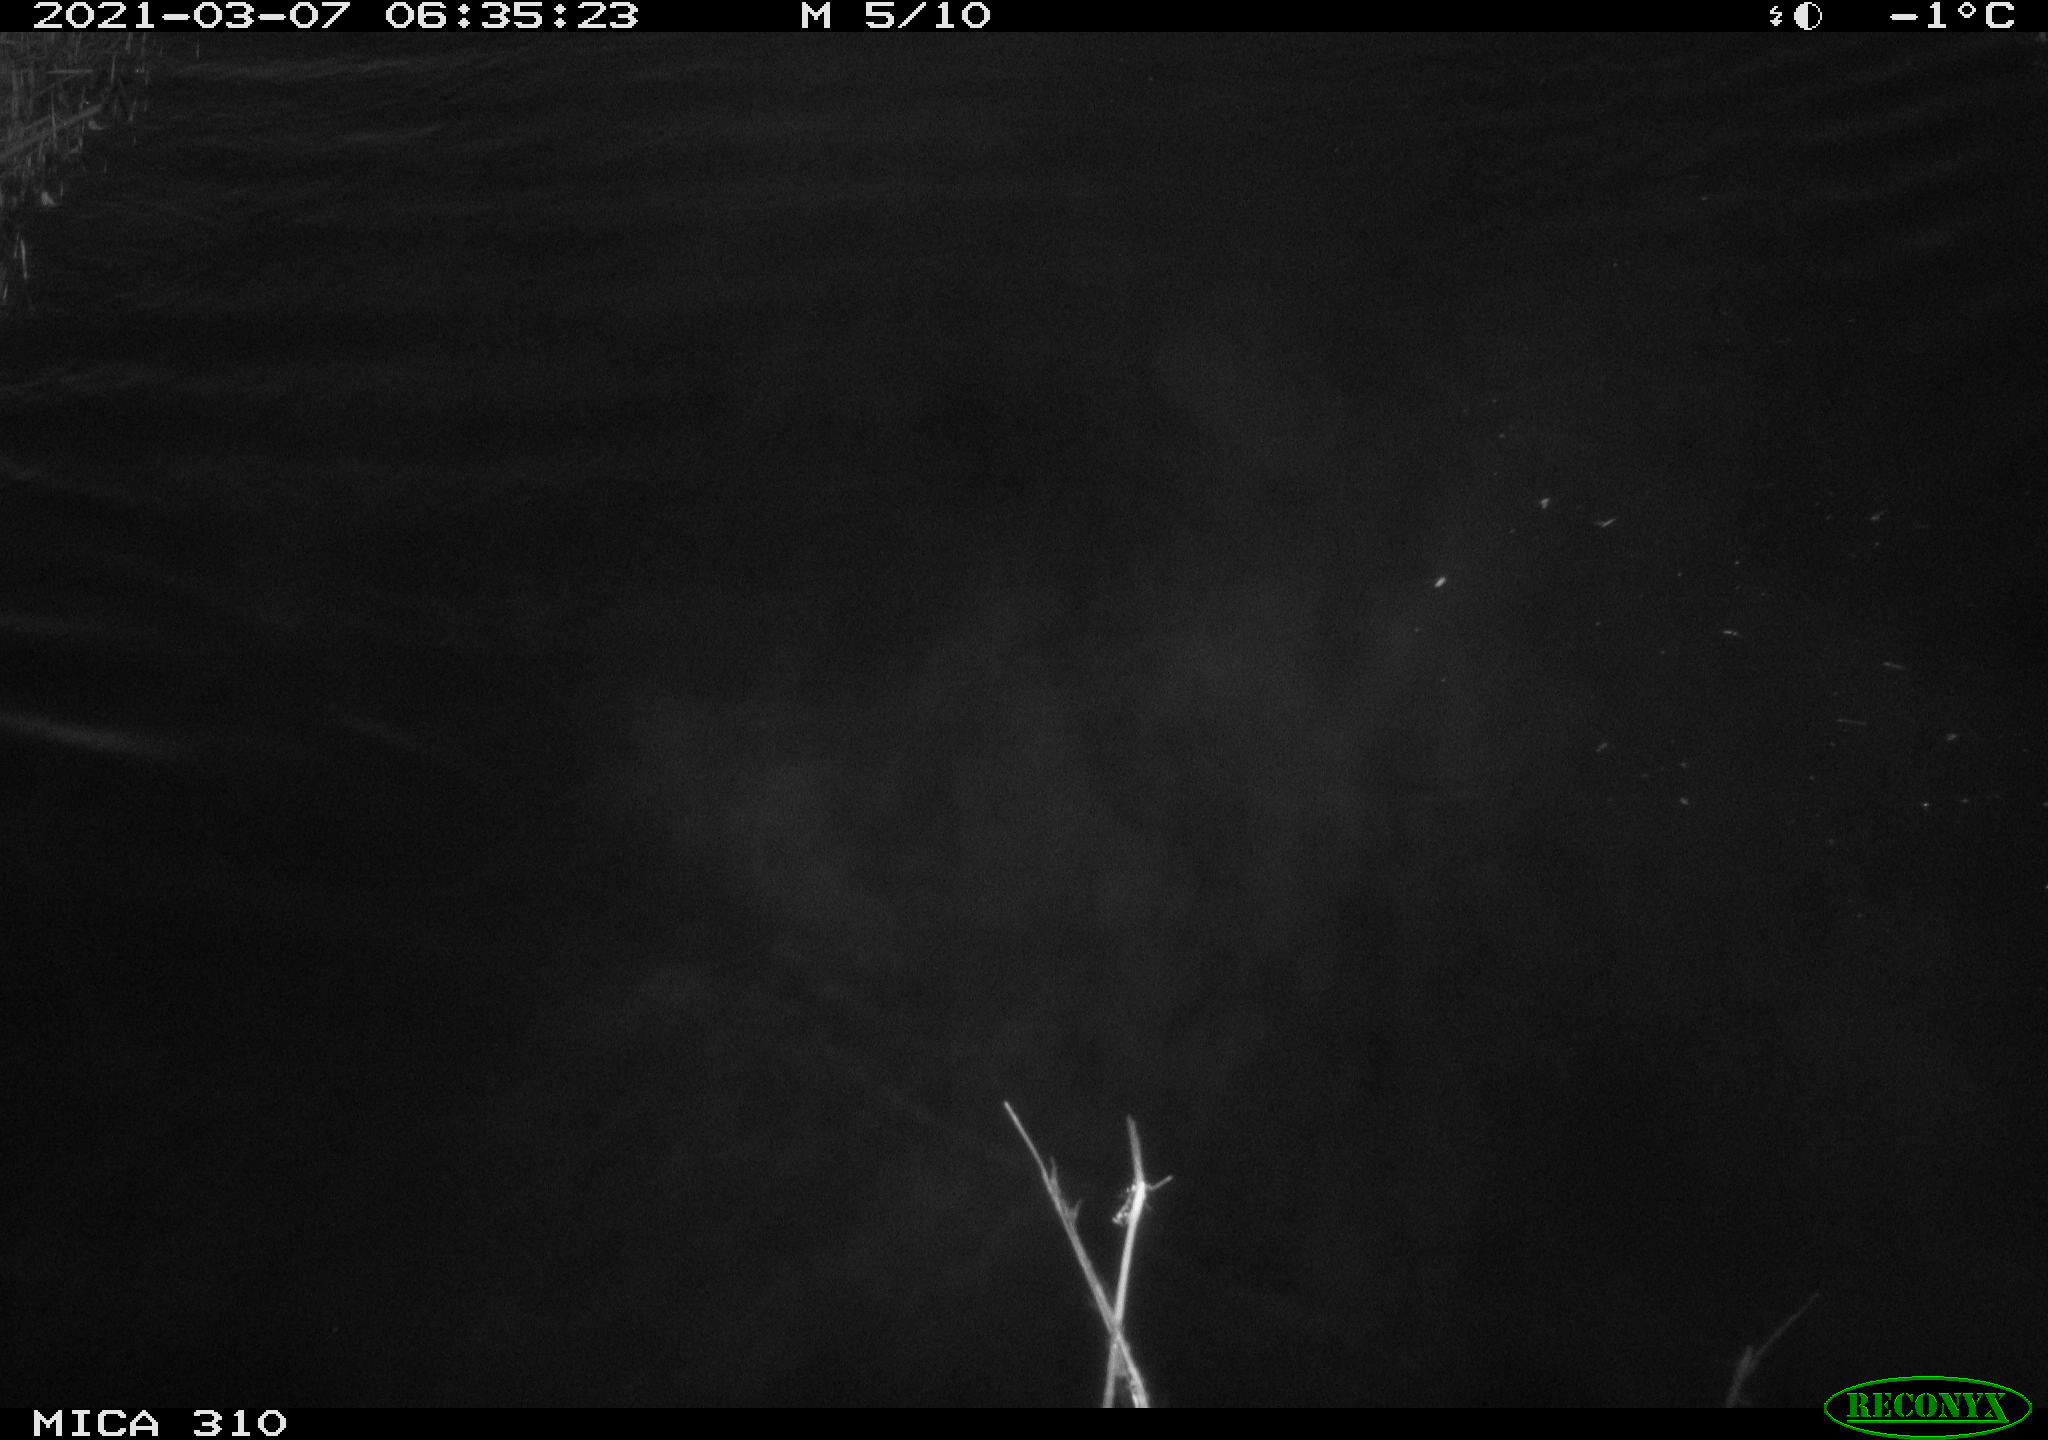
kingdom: Animalia
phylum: Chordata
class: Aves
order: Anseriformes
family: Anatidae
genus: Anas
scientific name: Anas platyrhynchos
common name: Mallard
